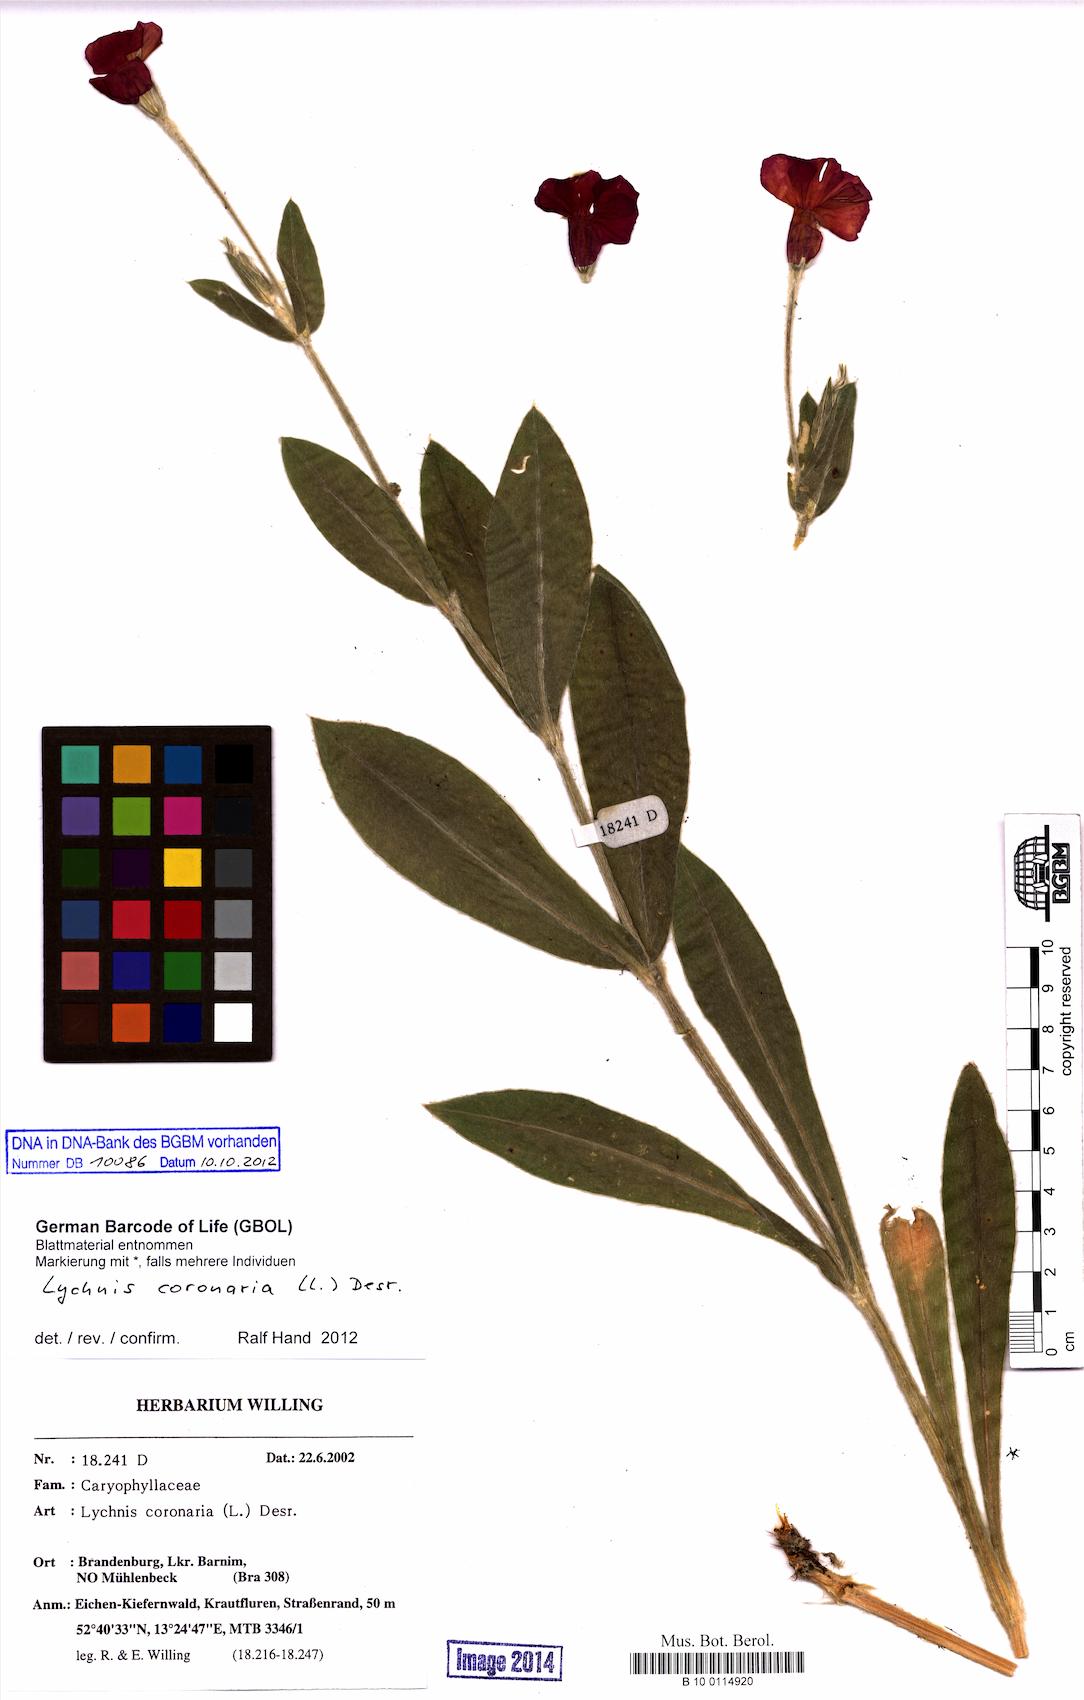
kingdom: Plantae
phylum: Tracheophyta
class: Magnoliopsida
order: Caryophyllales
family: Caryophyllaceae
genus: Silene
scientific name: Silene coronaria
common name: Rose campion
